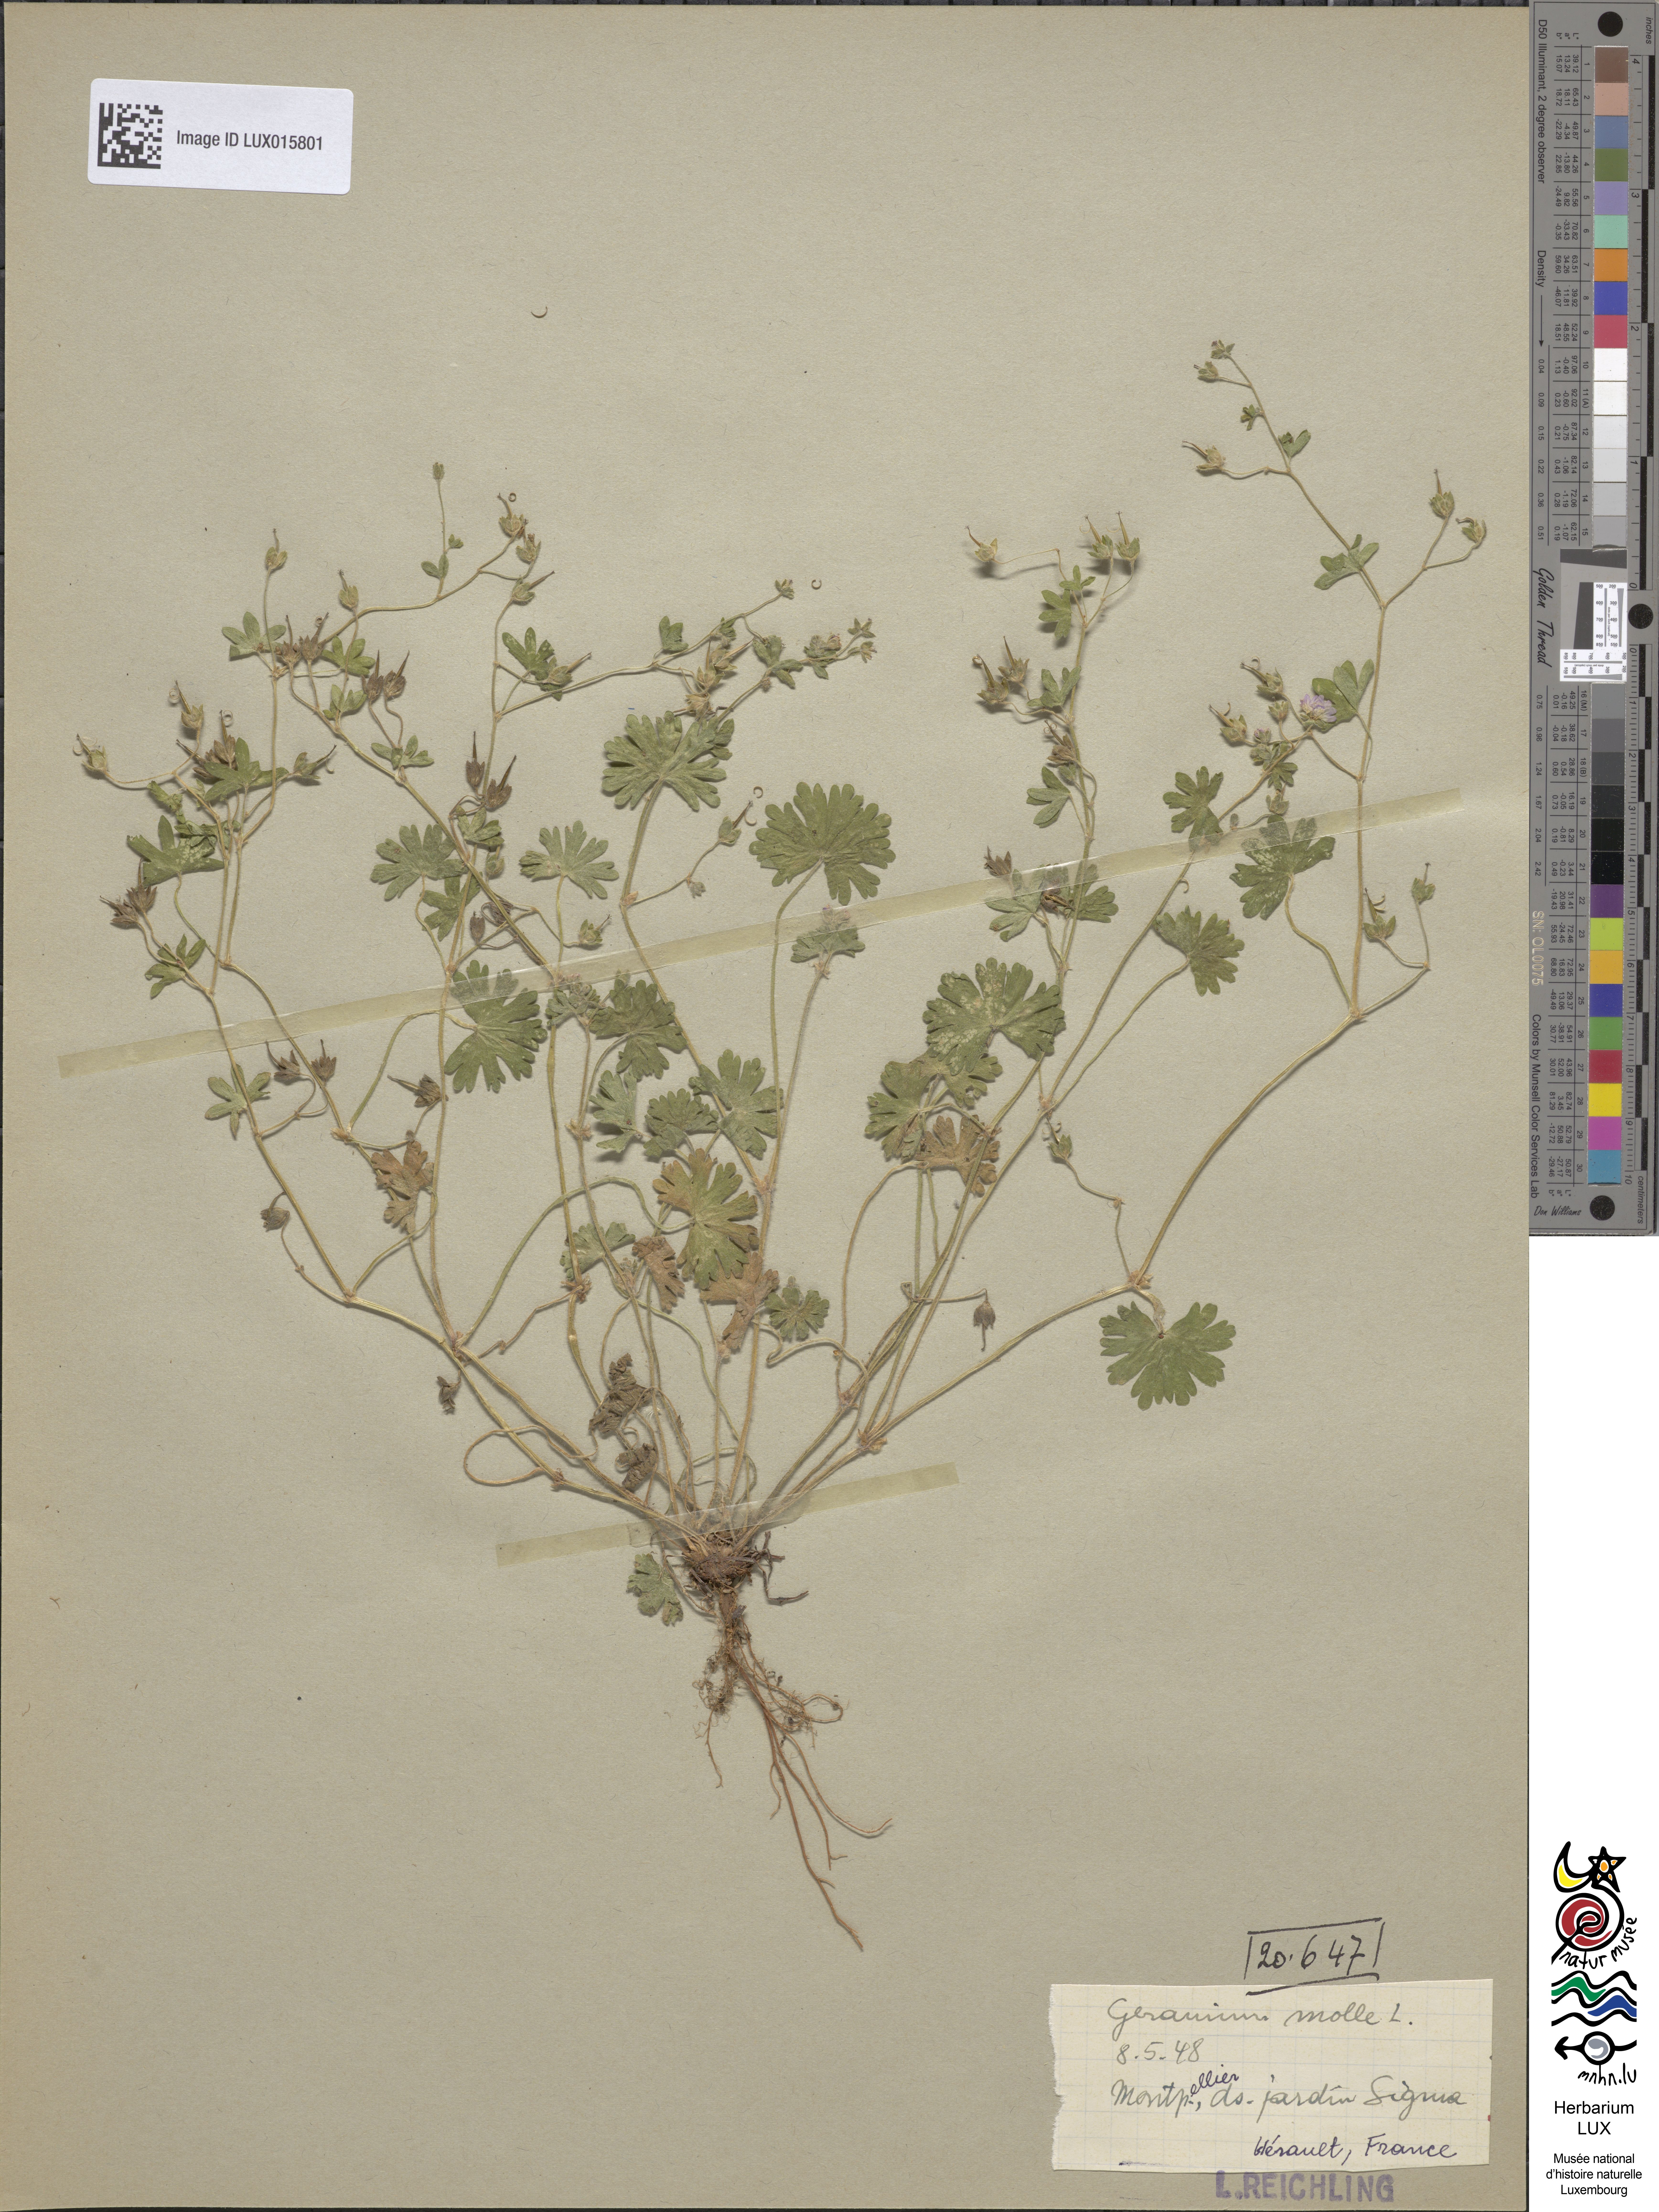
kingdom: Plantae
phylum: Tracheophyta
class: Magnoliopsida
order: Geraniales
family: Geraniaceae
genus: Geranium
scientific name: Geranium molle
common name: Dove's-foot crane's-bill
